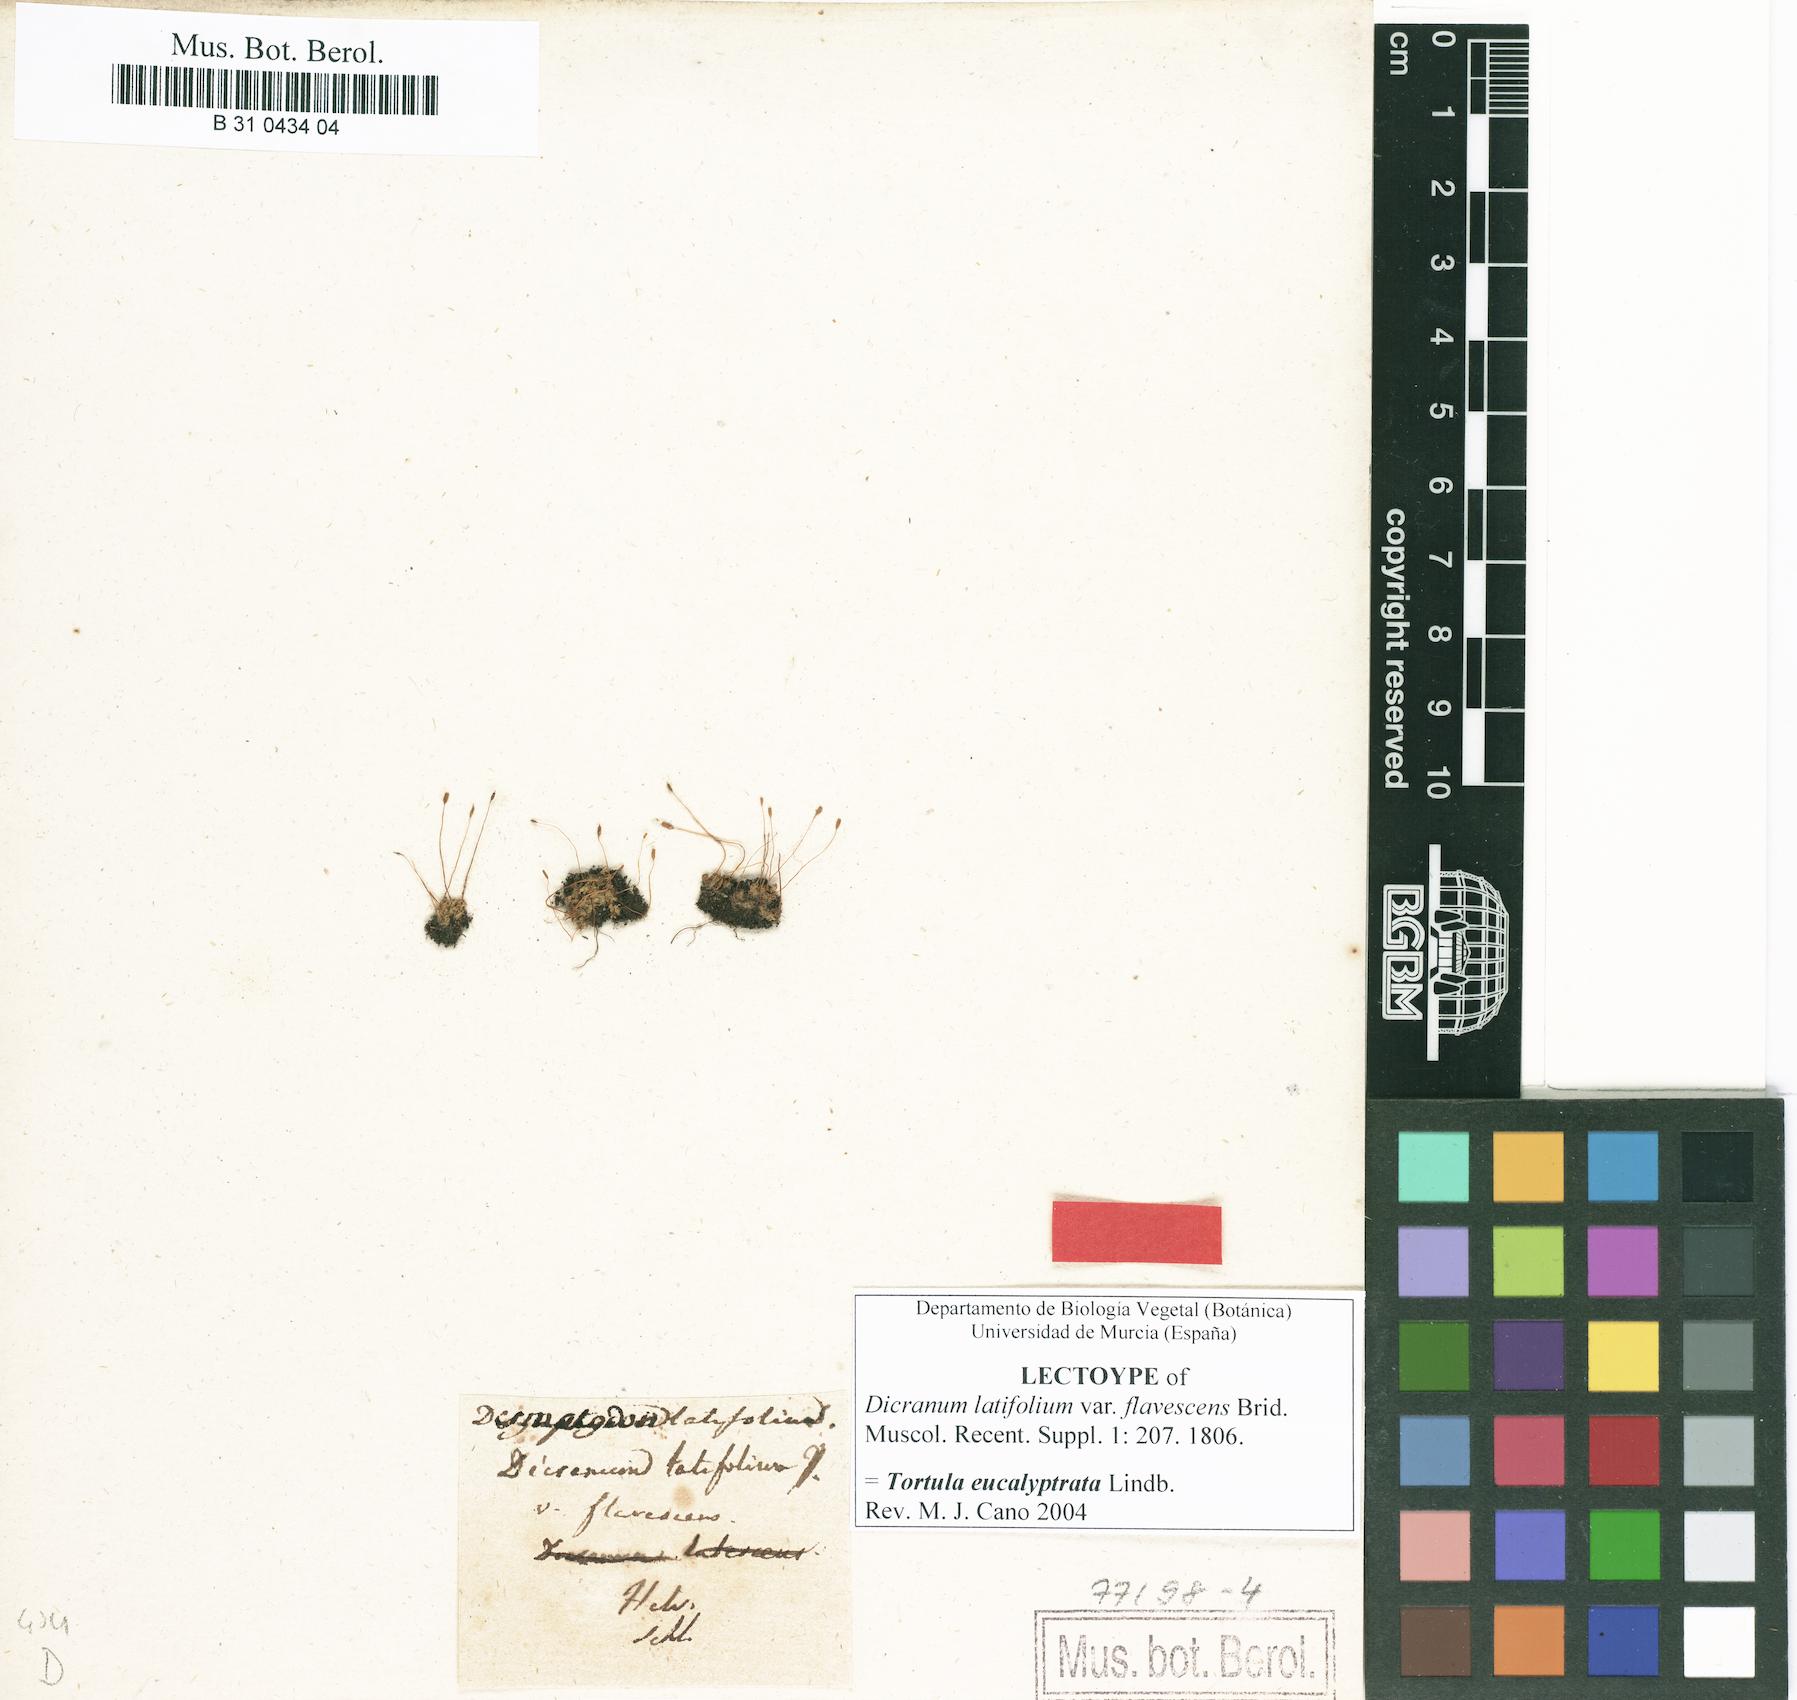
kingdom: Plantae
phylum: Bryophyta
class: Bryopsida
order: Pottiales
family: Pottiaceae
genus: Tortula
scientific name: Tortula hoppeana
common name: Hoppe's screw moss
